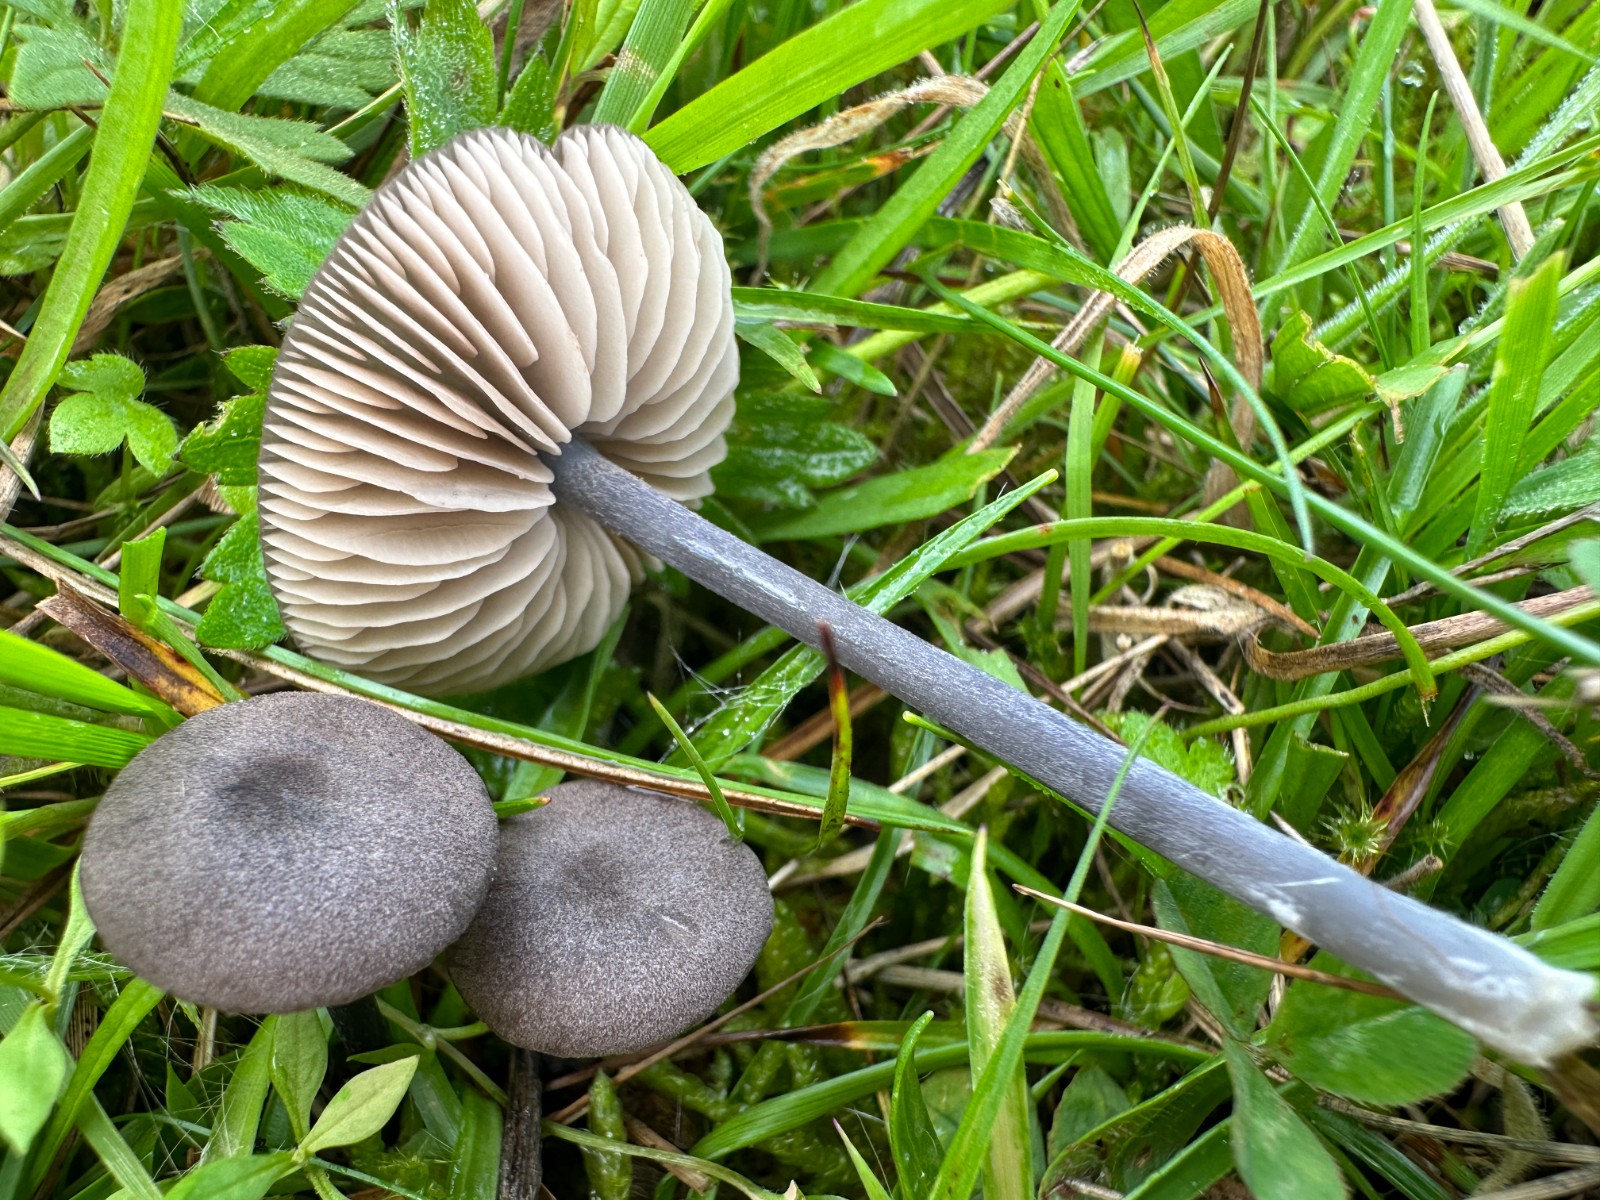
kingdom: Fungi
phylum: Basidiomycota
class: Agaricomycetes
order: Agaricales
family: Entolomataceae
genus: Entoloma
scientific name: Entoloma
